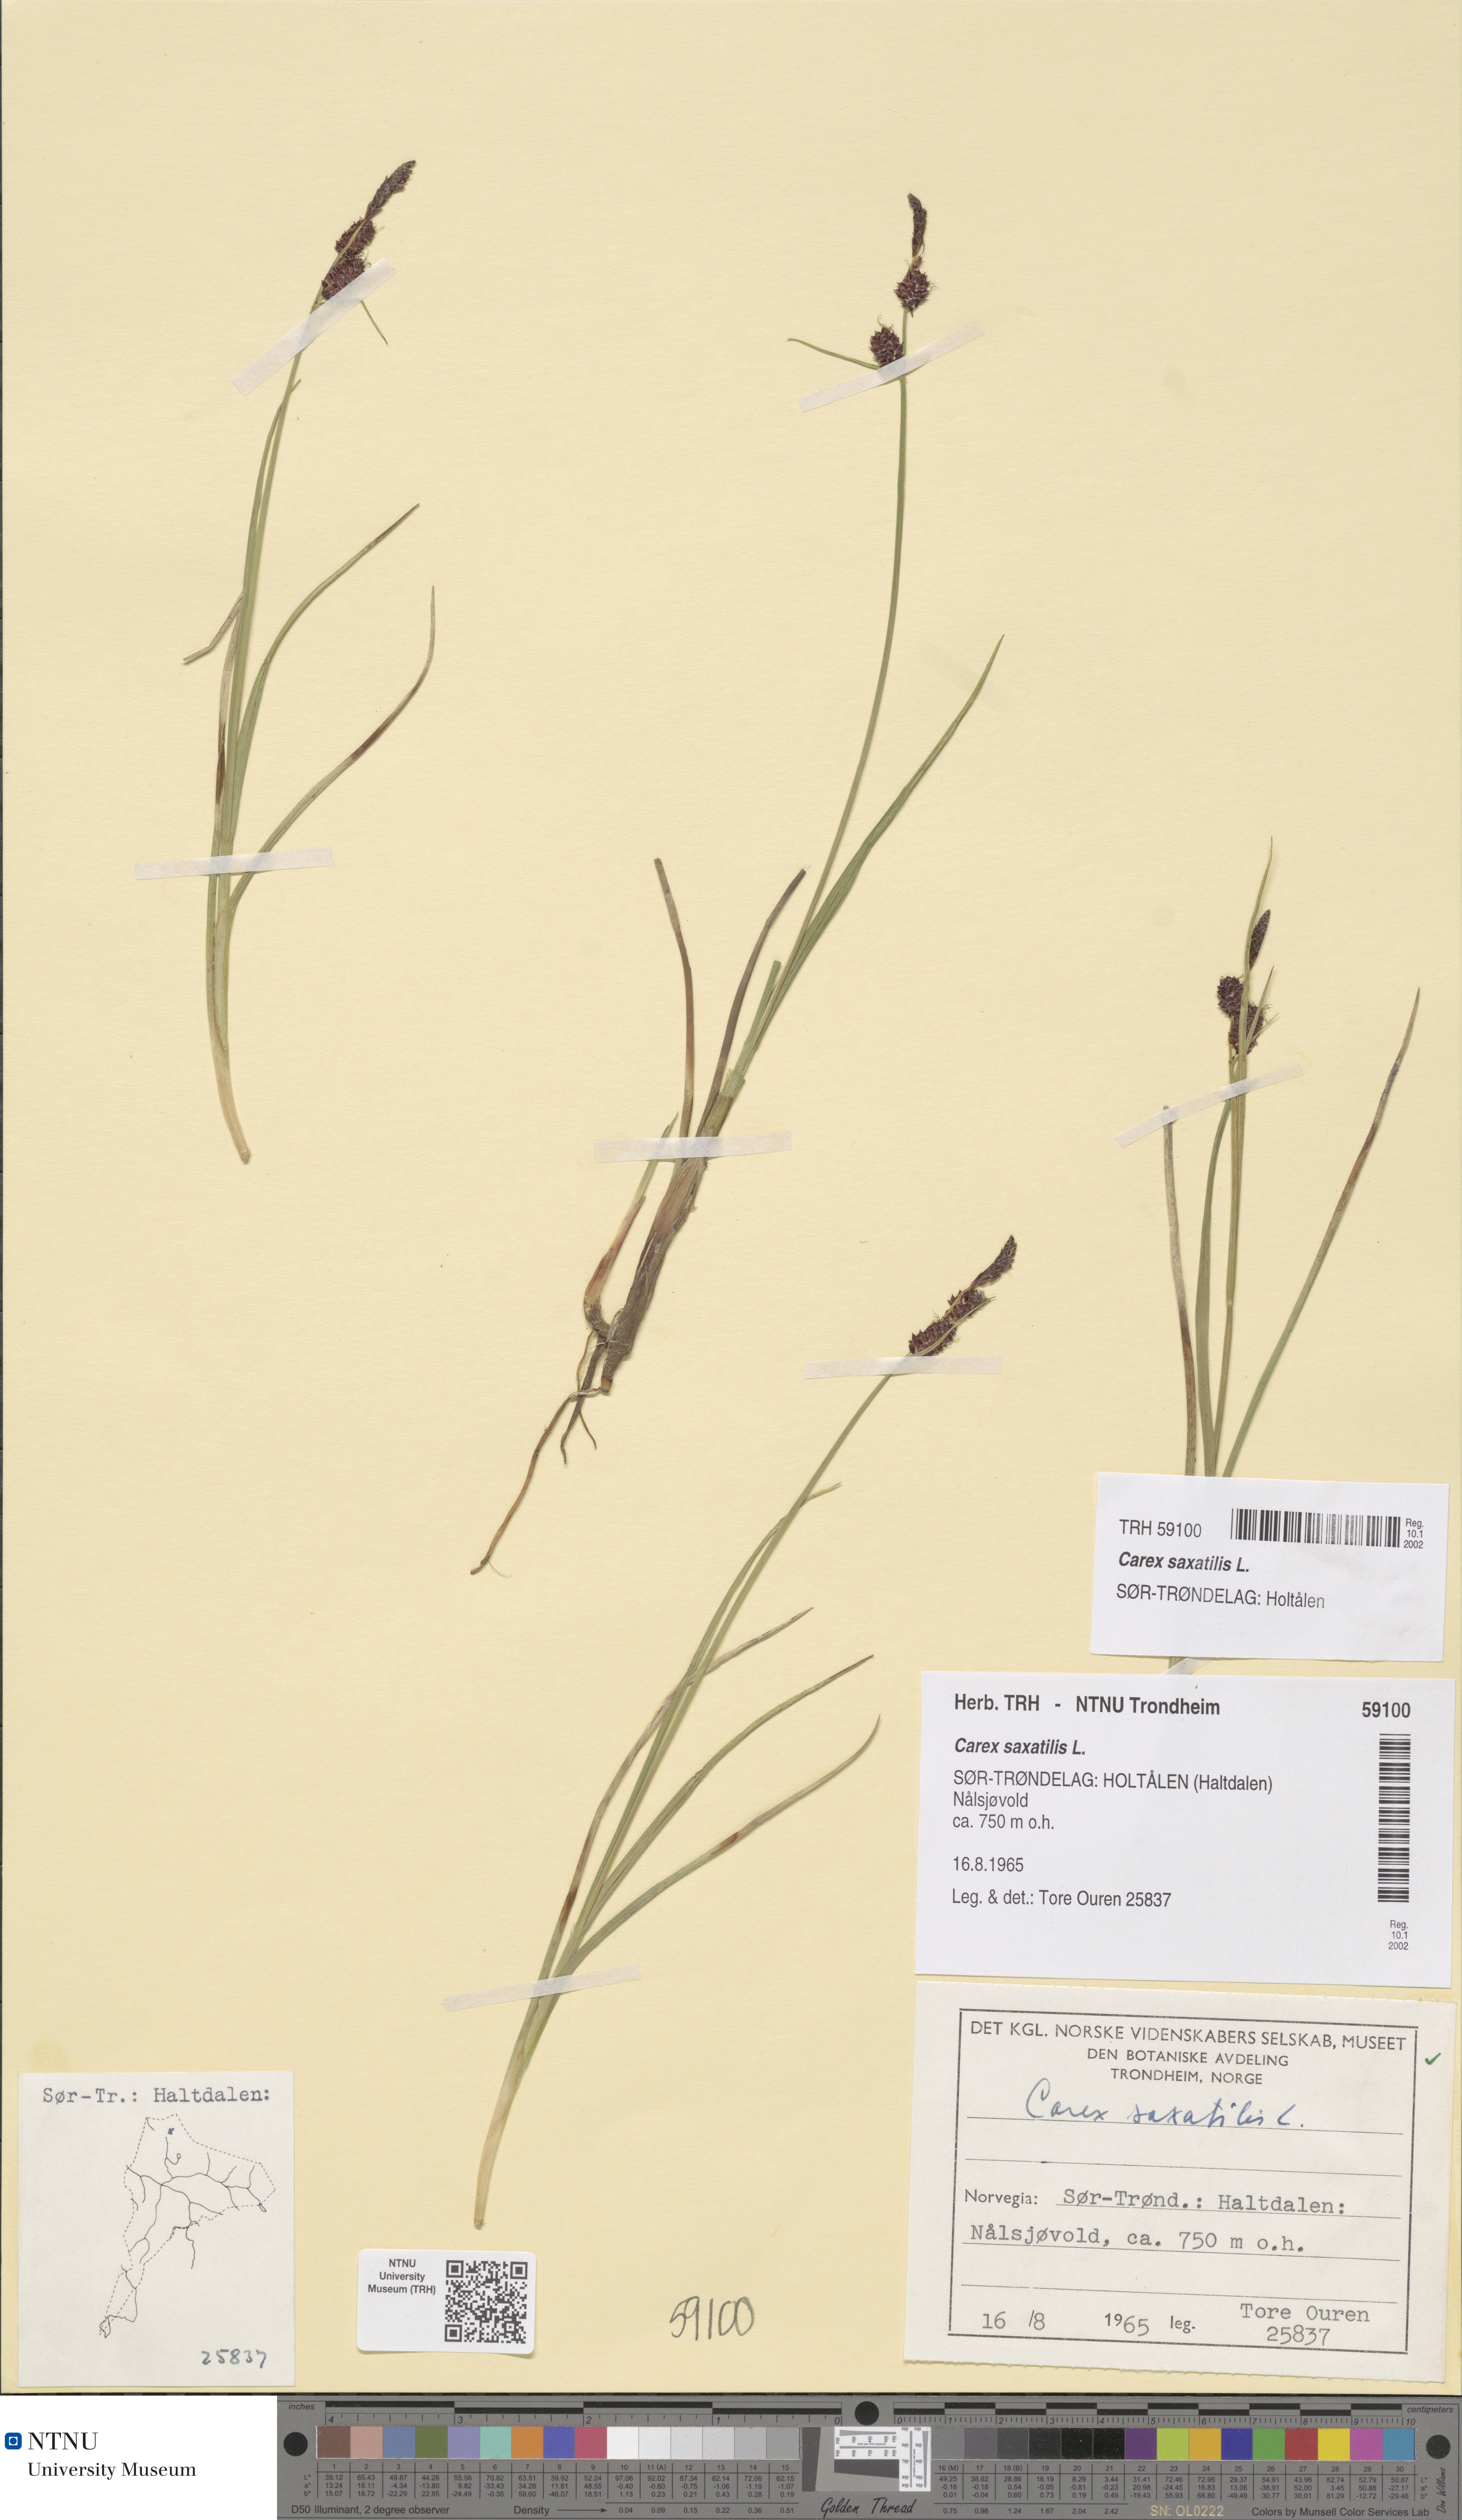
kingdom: Plantae
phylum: Tracheophyta
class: Liliopsida
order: Poales
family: Cyperaceae
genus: Carex
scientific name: Carex saxatilis
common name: Russet sedge
